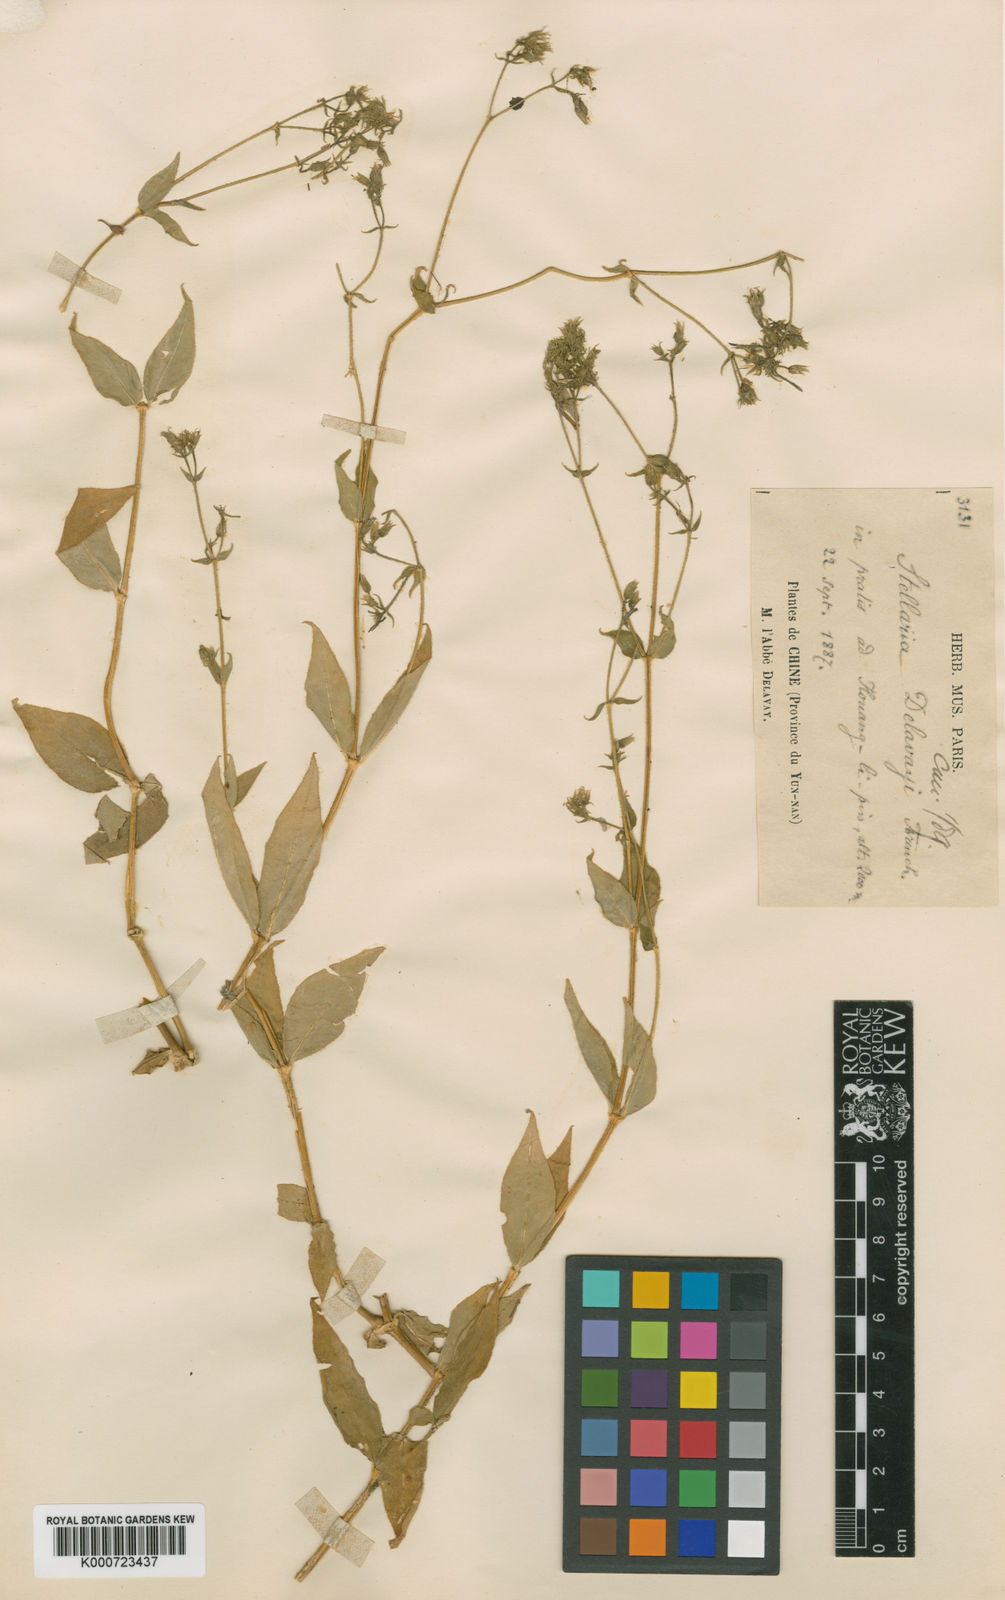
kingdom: Plantae
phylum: Tracheophyta
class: Magnoliopsida
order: Caryophyllales
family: Caryophyllaceae
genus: Stellaria
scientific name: Stellaria delavayi
